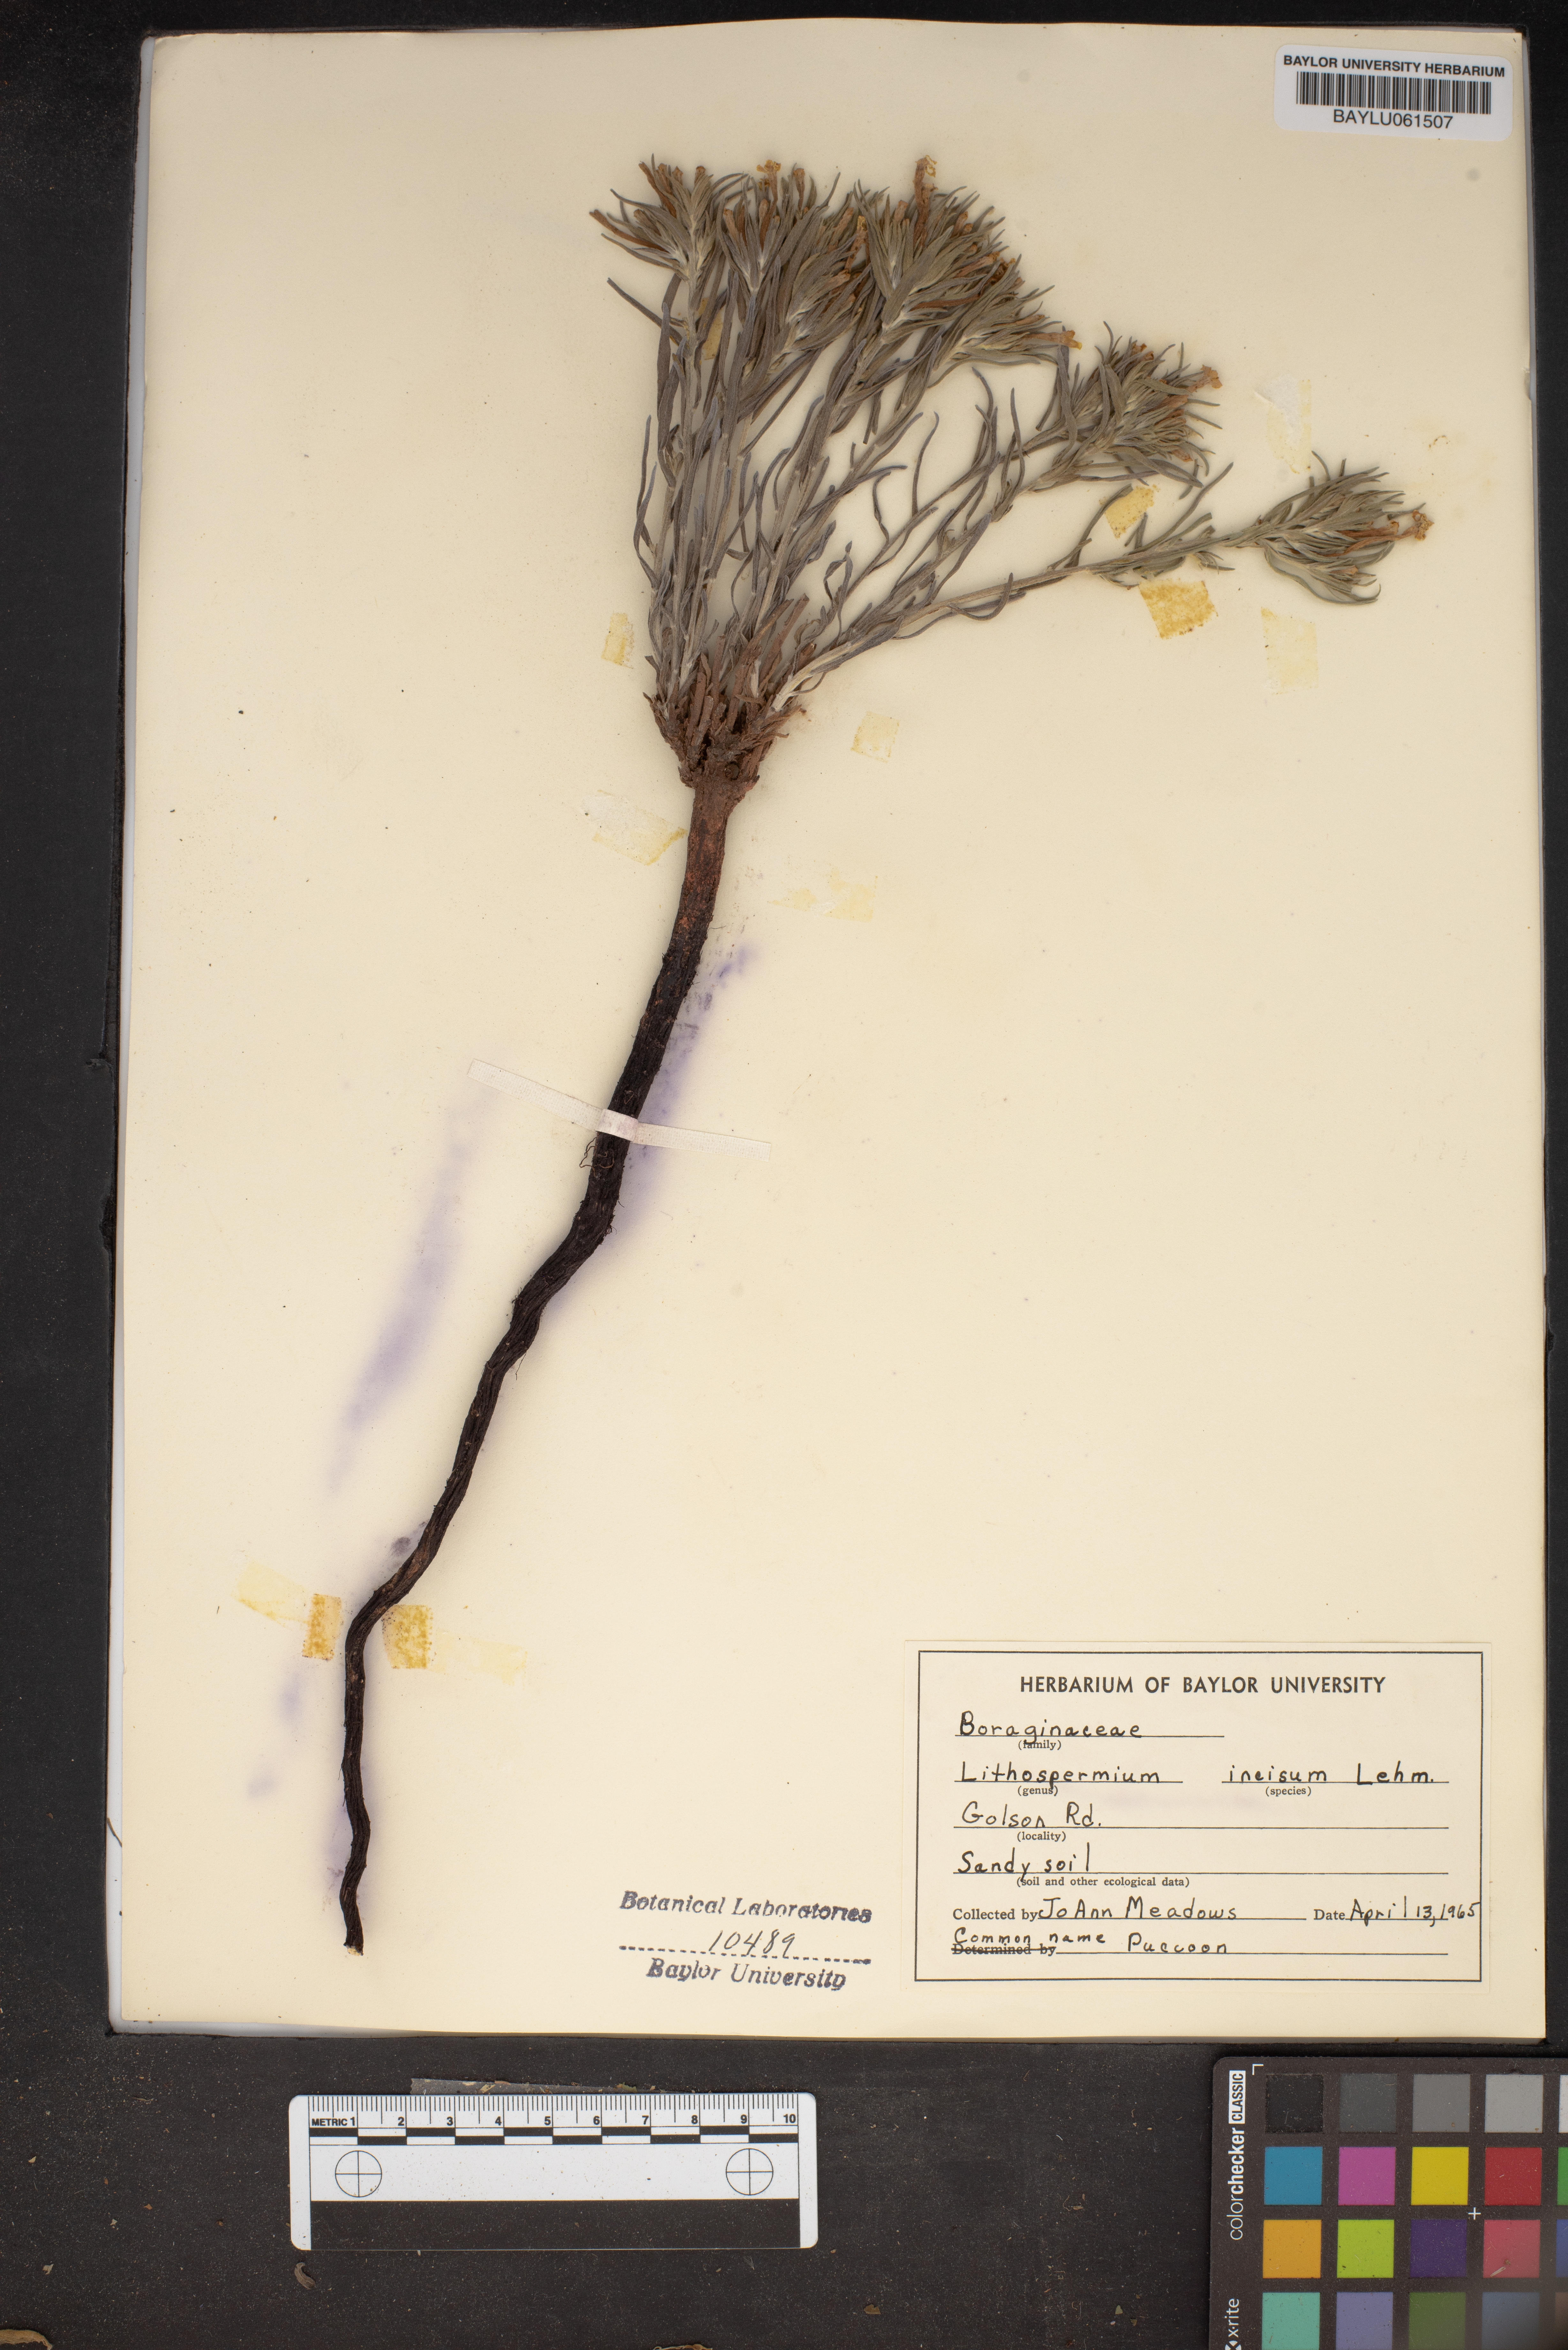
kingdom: Plantae
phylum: Tracheophyta
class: Magnoliopsida
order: Boraginales
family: Boraginaceae
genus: Lithospermum
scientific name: Lithospermum incisum
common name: Fringed gromwell
